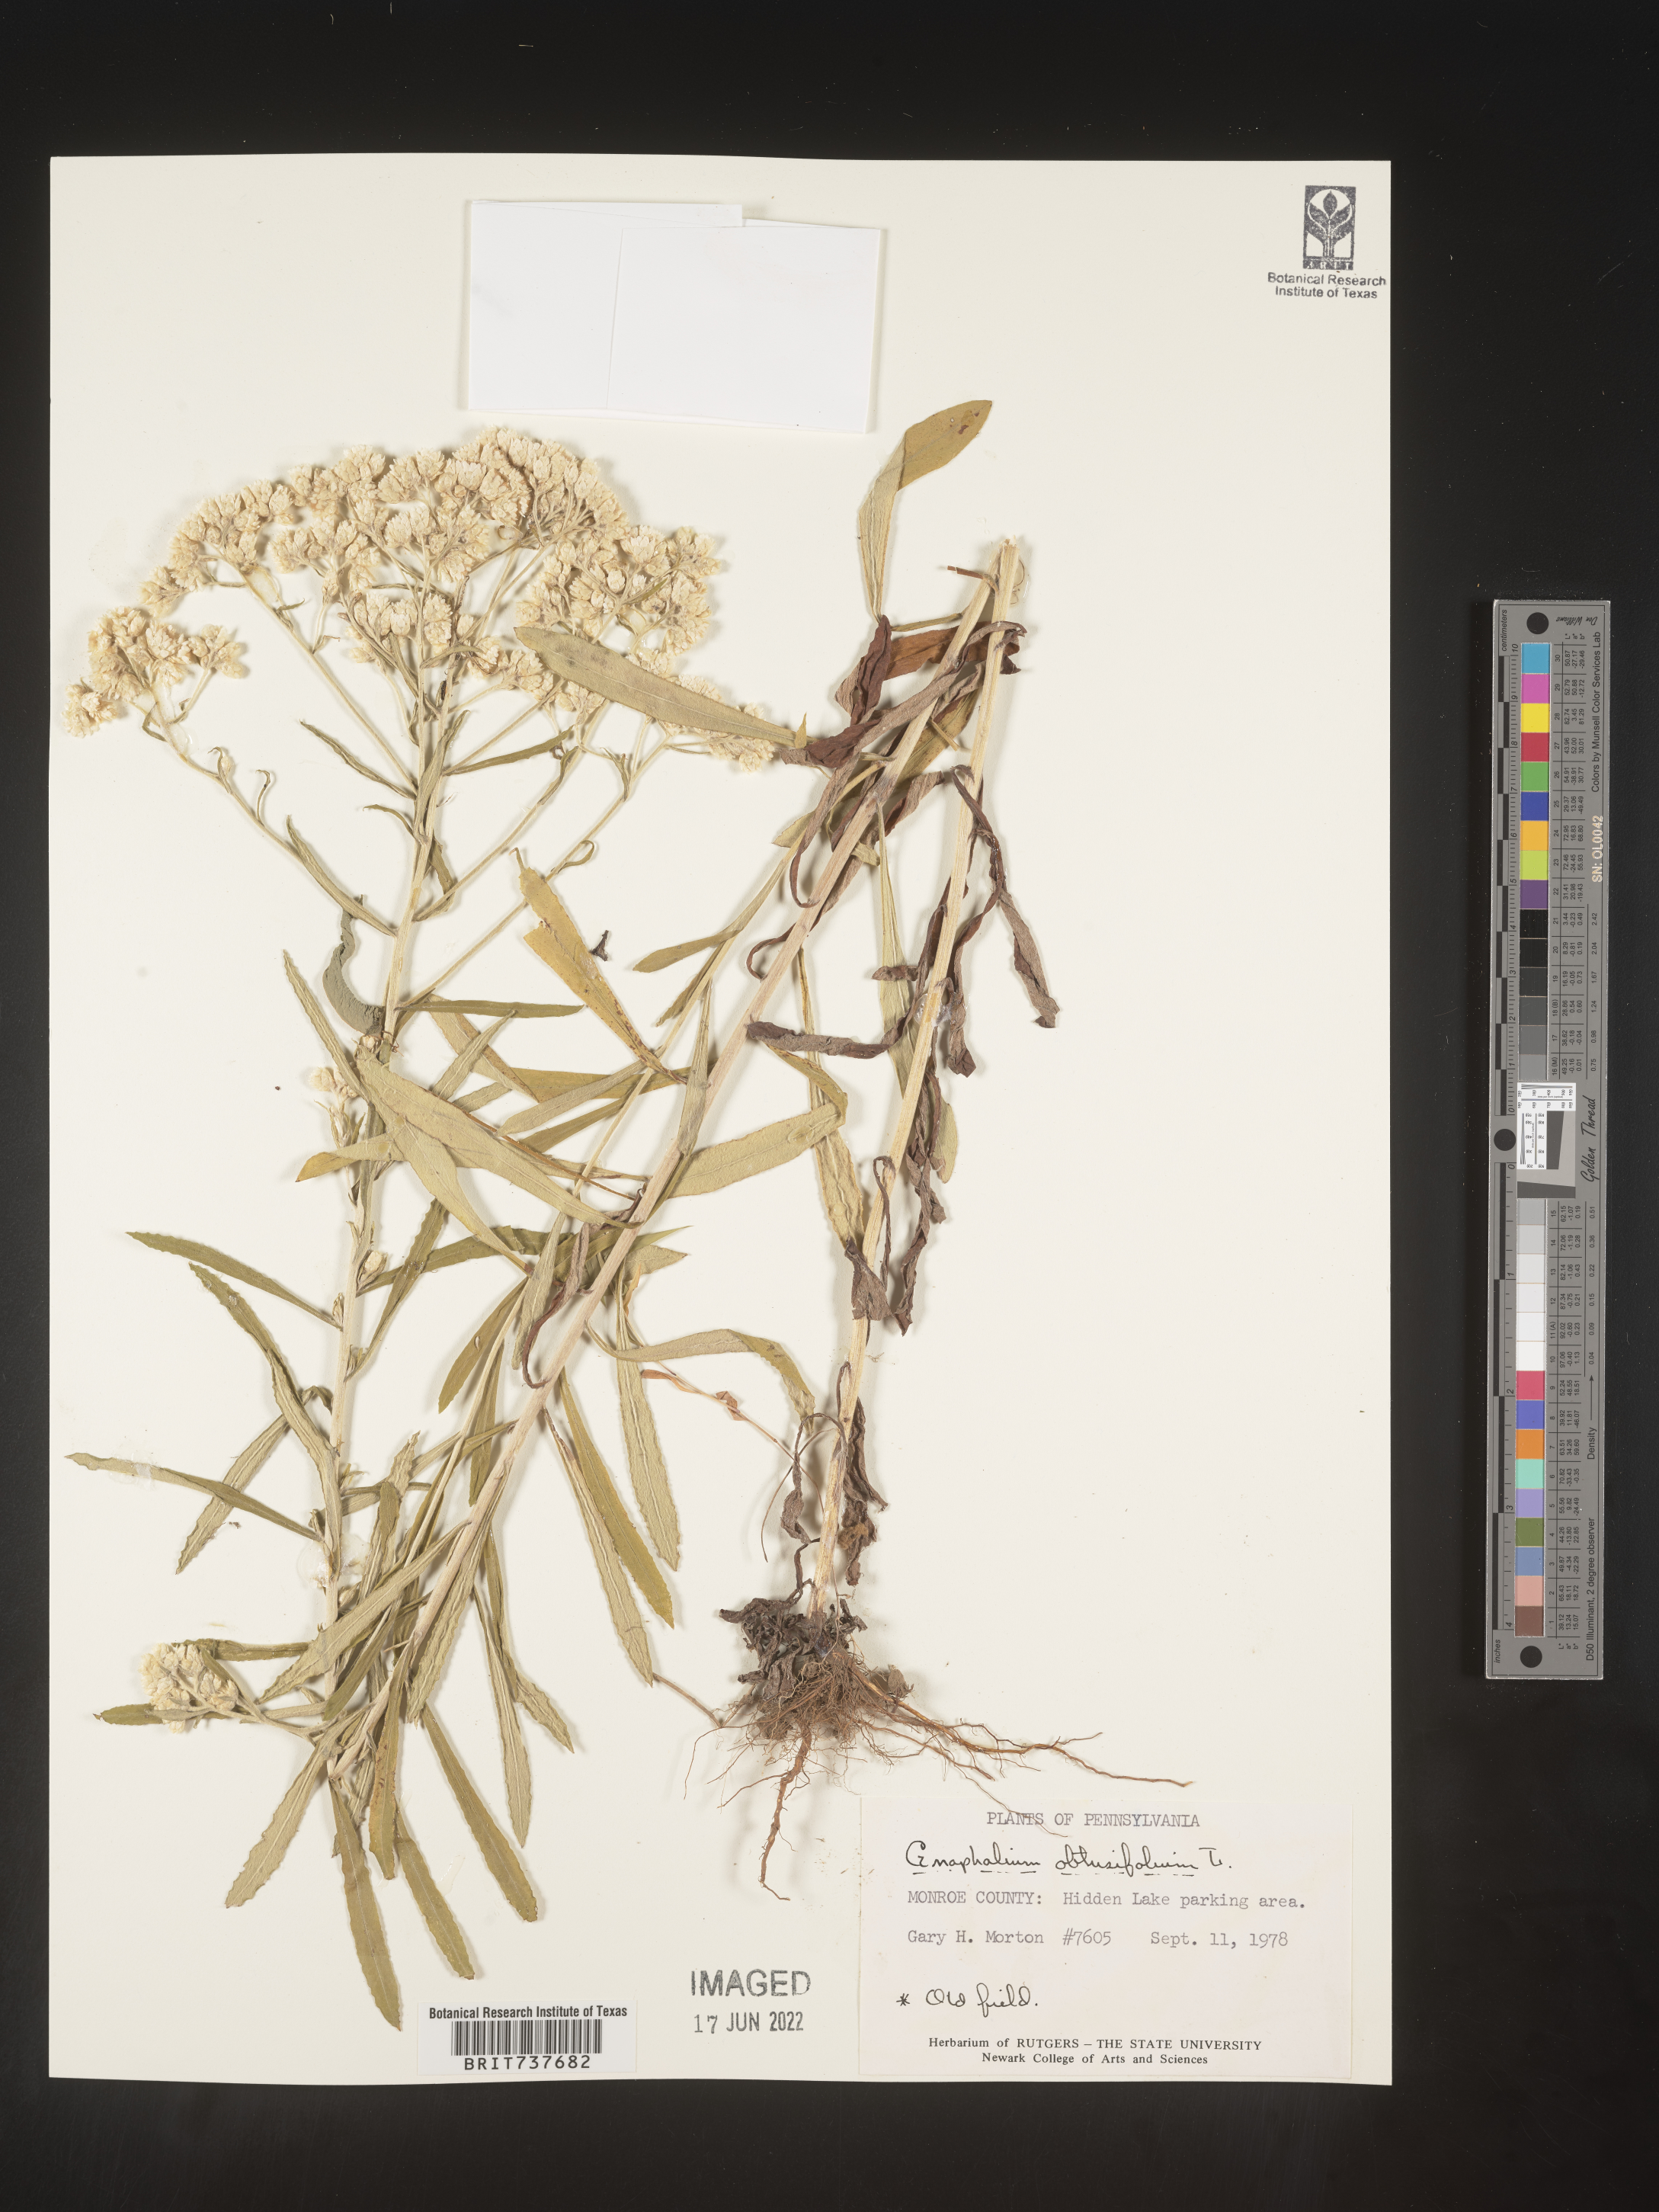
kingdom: Plantae
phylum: Tracheophyta
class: Magnoliopsida
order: Asterales
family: Asteraceae
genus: Pseudognaphalium
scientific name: Pseudognaphalium obtusifolium
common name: Eastern rabbit-tobacco
